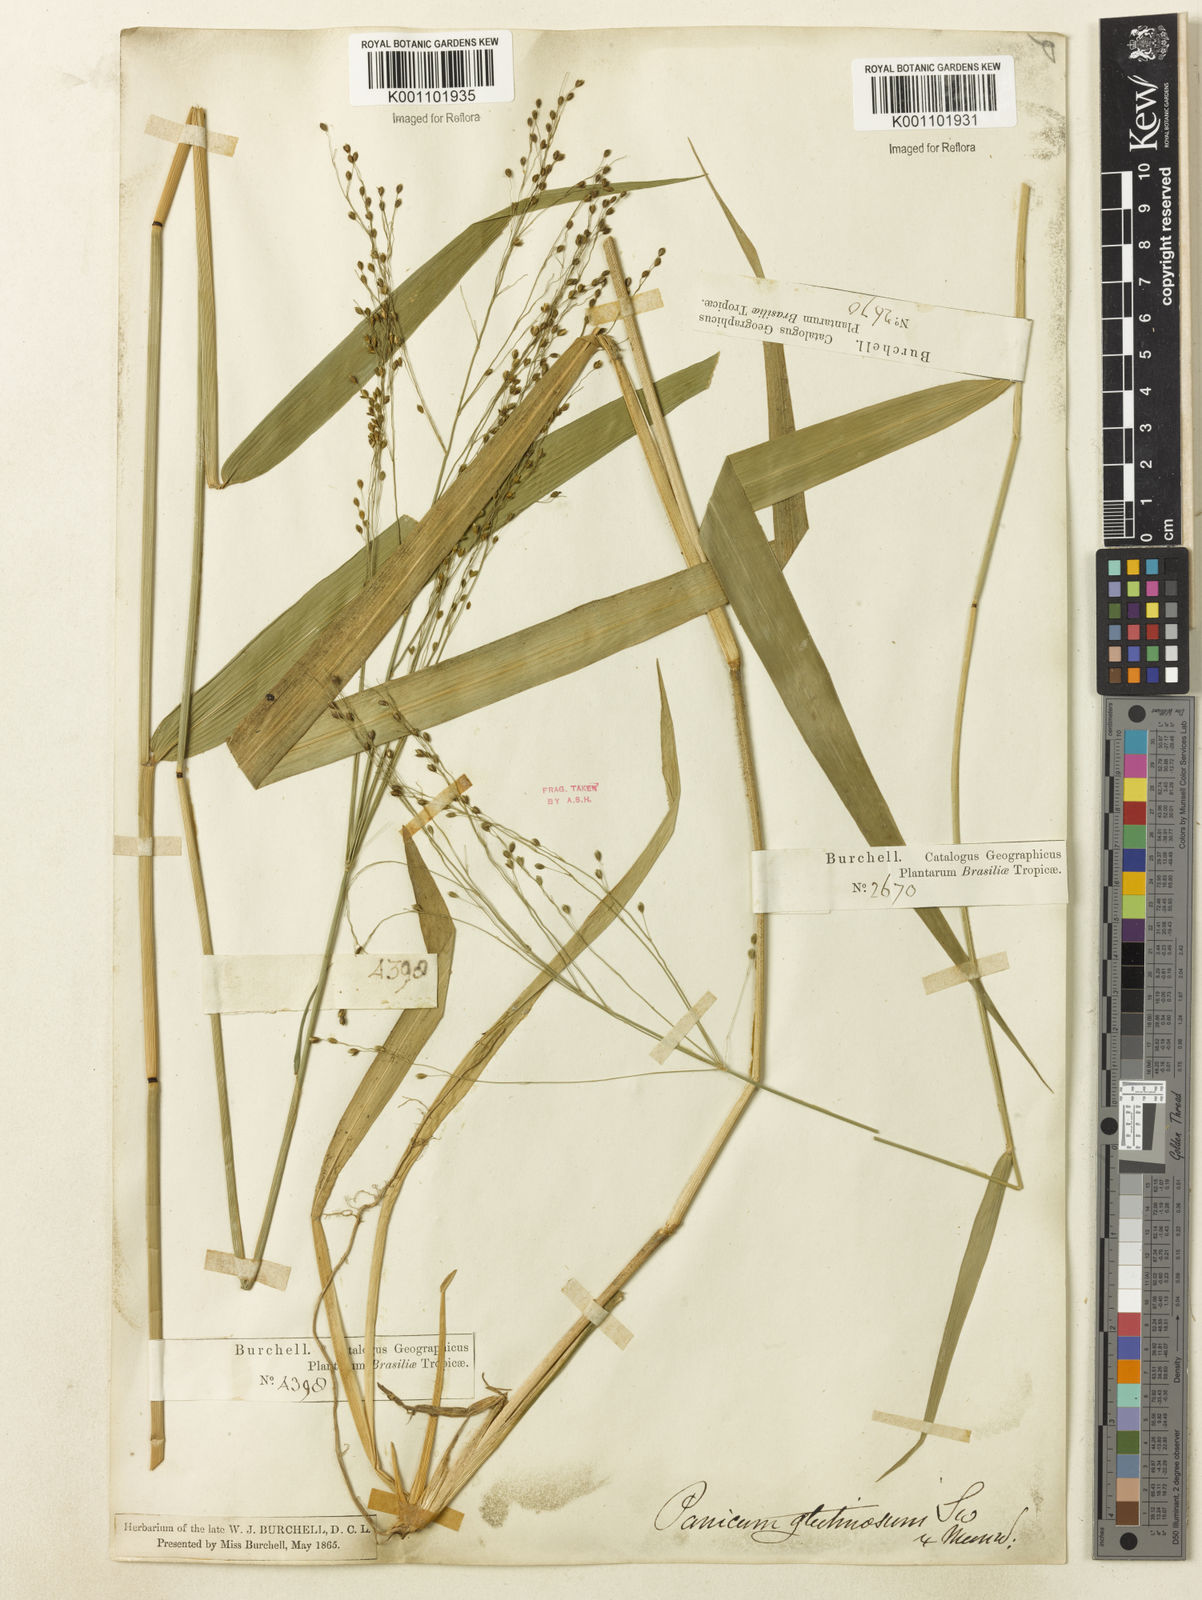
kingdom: Plantae
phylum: Tracheophyta
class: Liliopsida
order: Poales
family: Poaceae
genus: Homolepis
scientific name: Homolepis glutinosa
